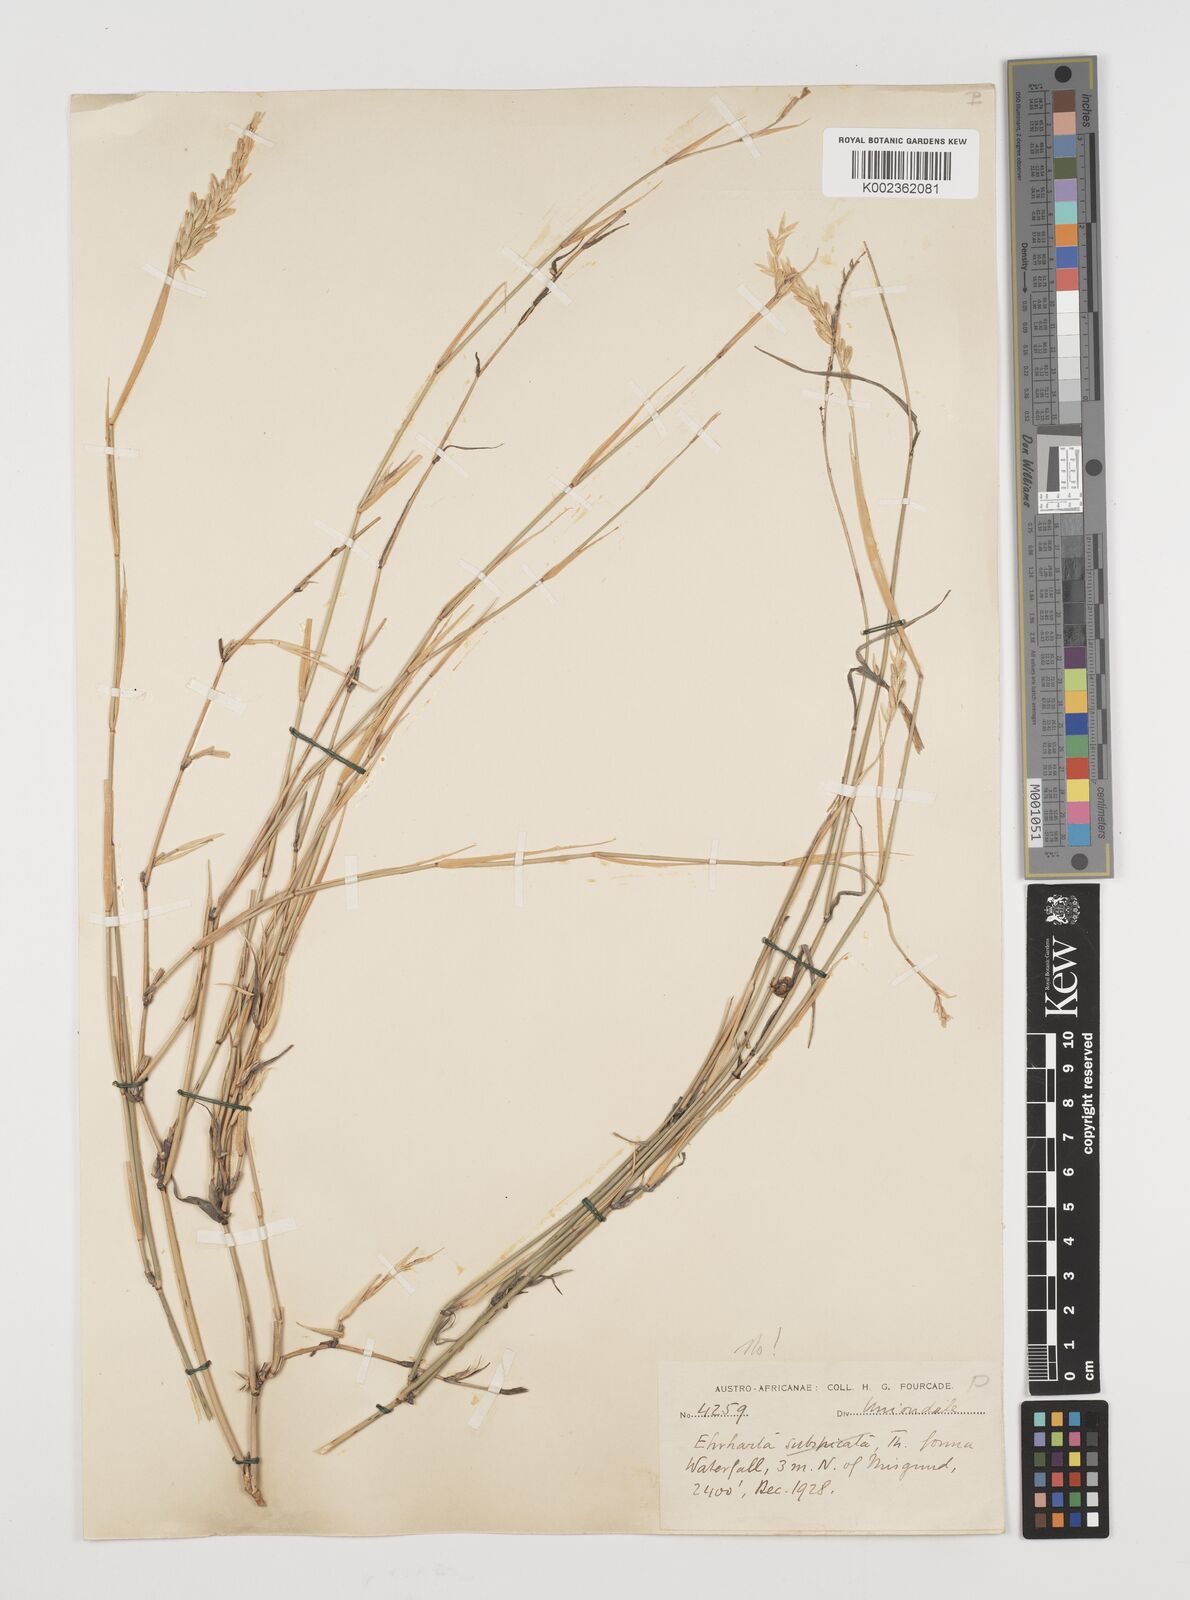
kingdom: Plantae
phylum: Tracheophyta
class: Liliopsida
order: Poales
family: Poaceae
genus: Ehrharta
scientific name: Ehrharta digyna
